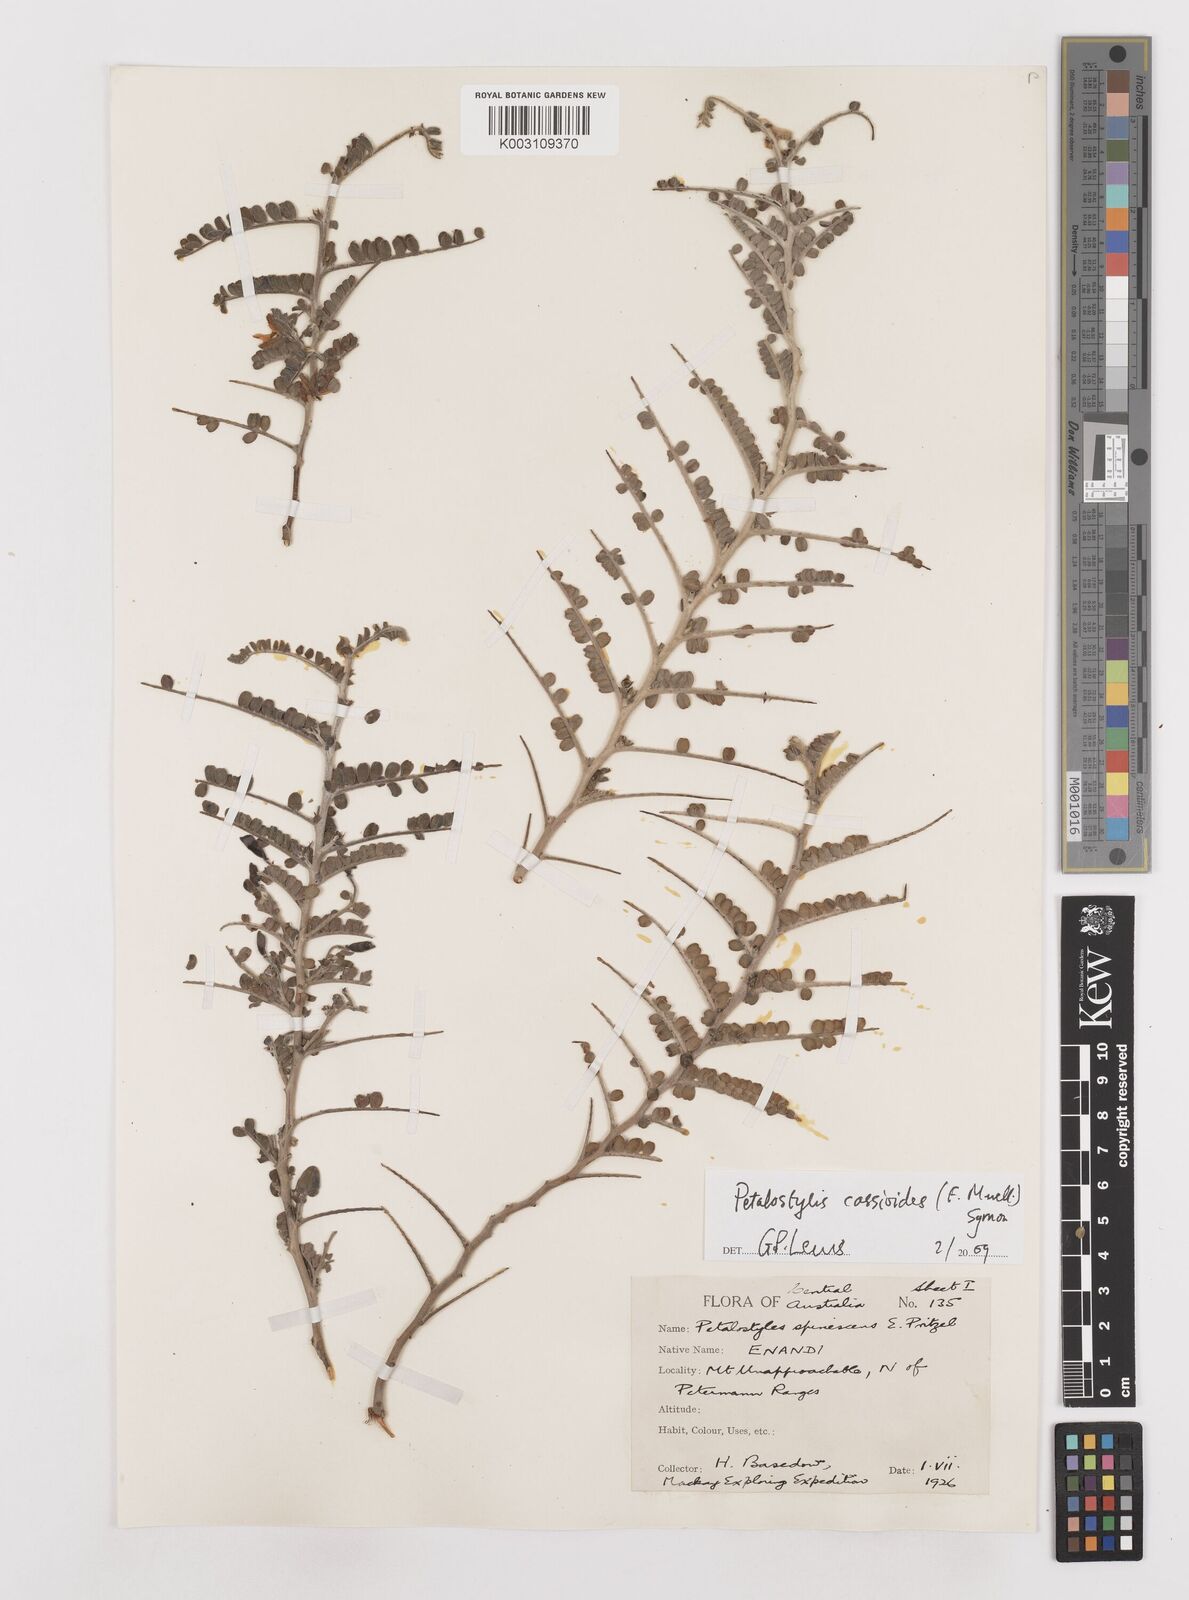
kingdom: Plantae
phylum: Tracheophyta
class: Magnoliopsida
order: Fabales
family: Fabaceae
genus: Petalostylis
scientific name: Petalostylis cassioides
